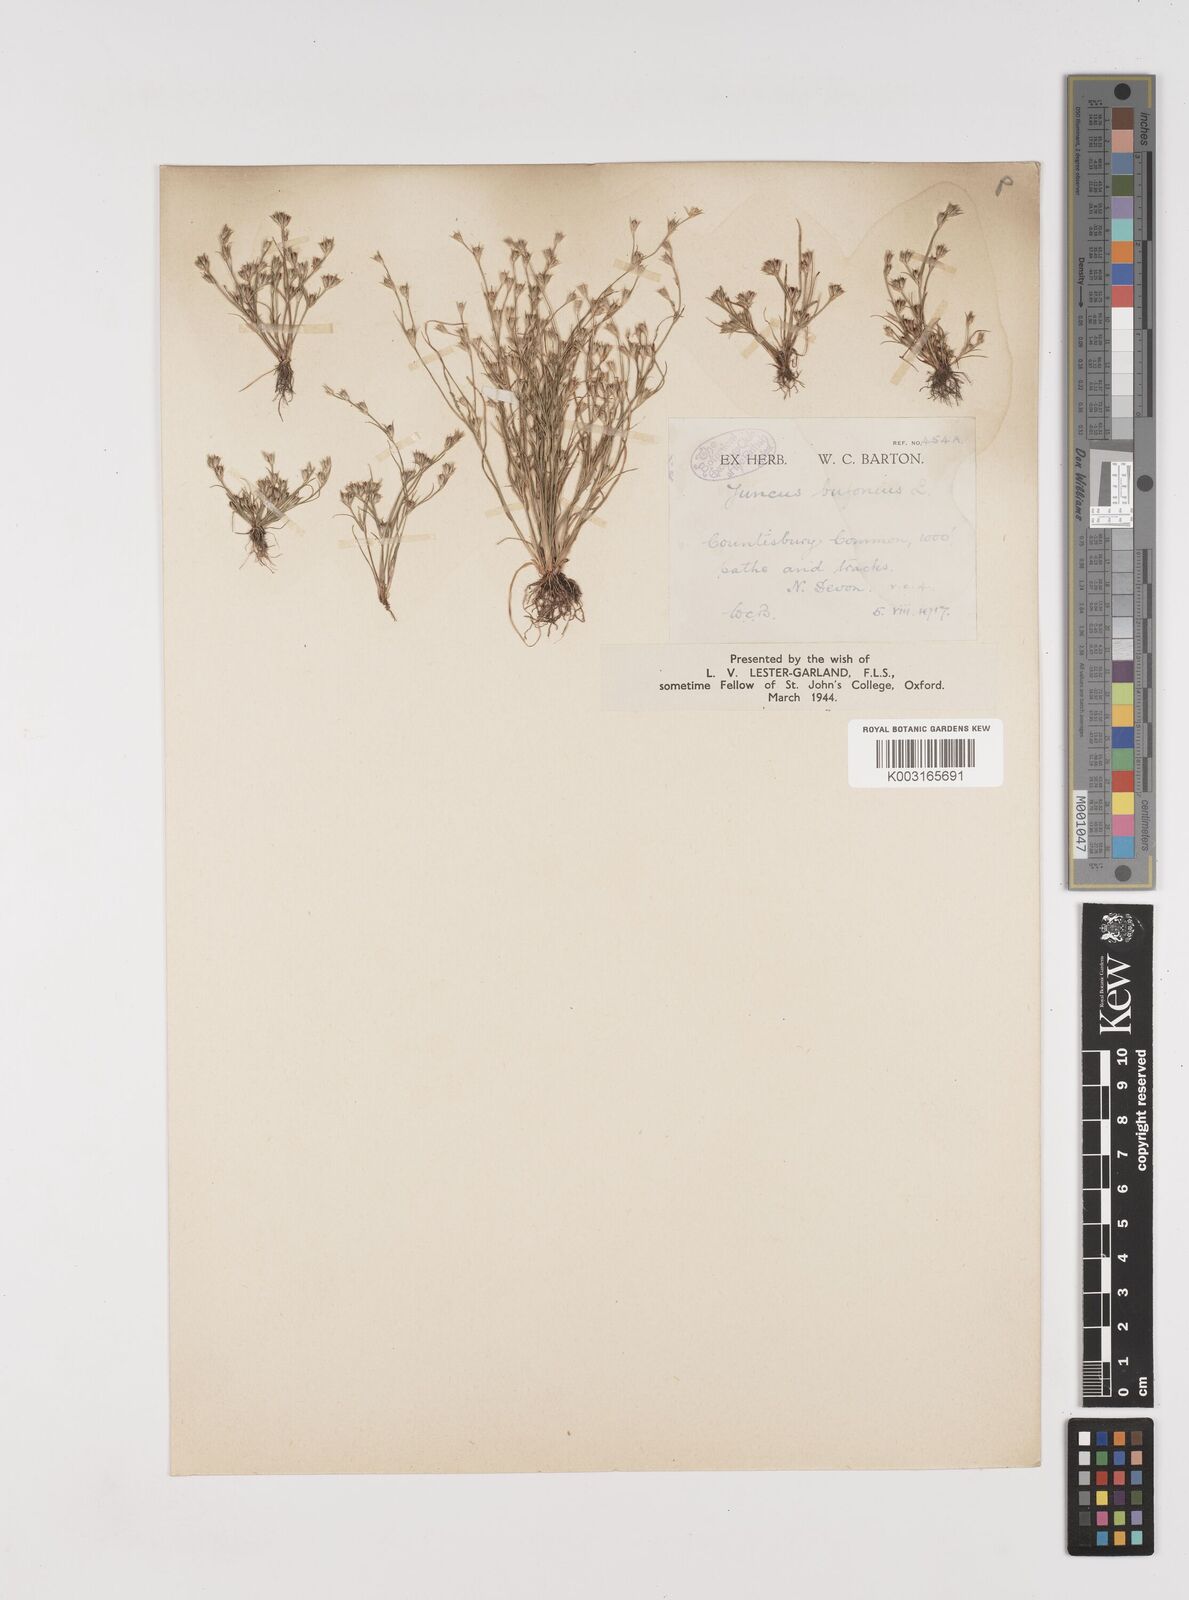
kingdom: Plantae
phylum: Tracheophyta
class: Liliopsida
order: Poales
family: Juncaceae
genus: Juncus
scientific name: Juncus bufonius
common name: Toad rush
